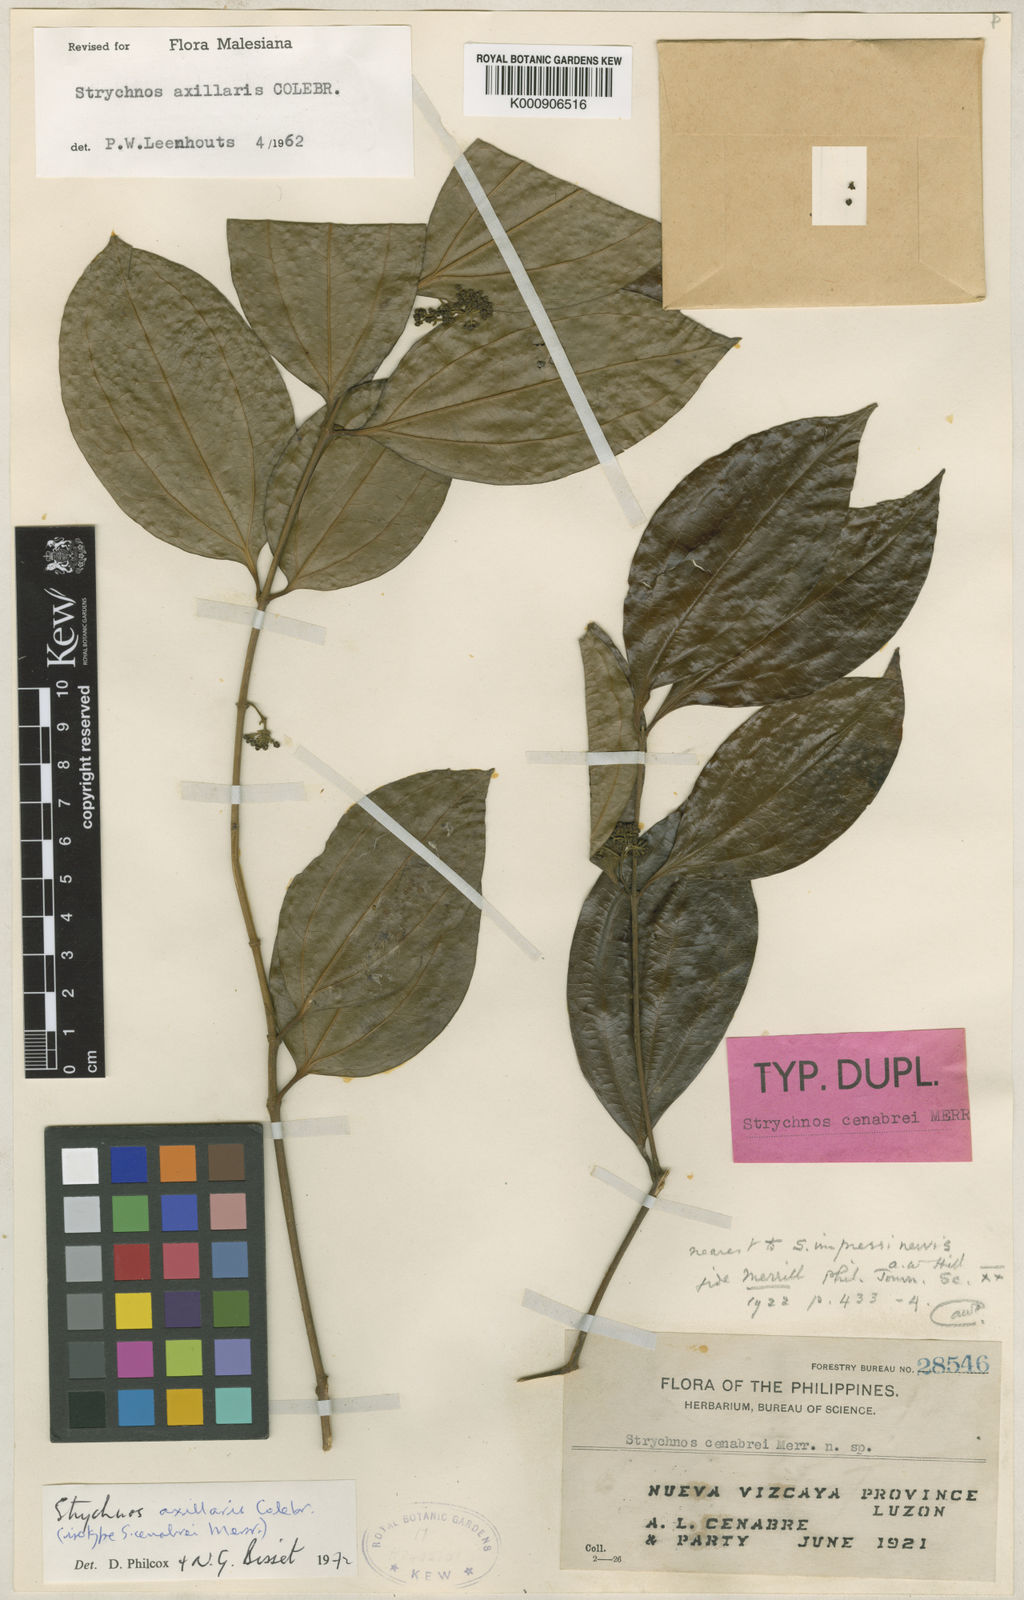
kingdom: Plantae
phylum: Tracheophyta
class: Magnoliopsida
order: Gentianales
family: Loganiaceae
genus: Strychnos
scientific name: Strychnos axillaris
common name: Strychninebush
